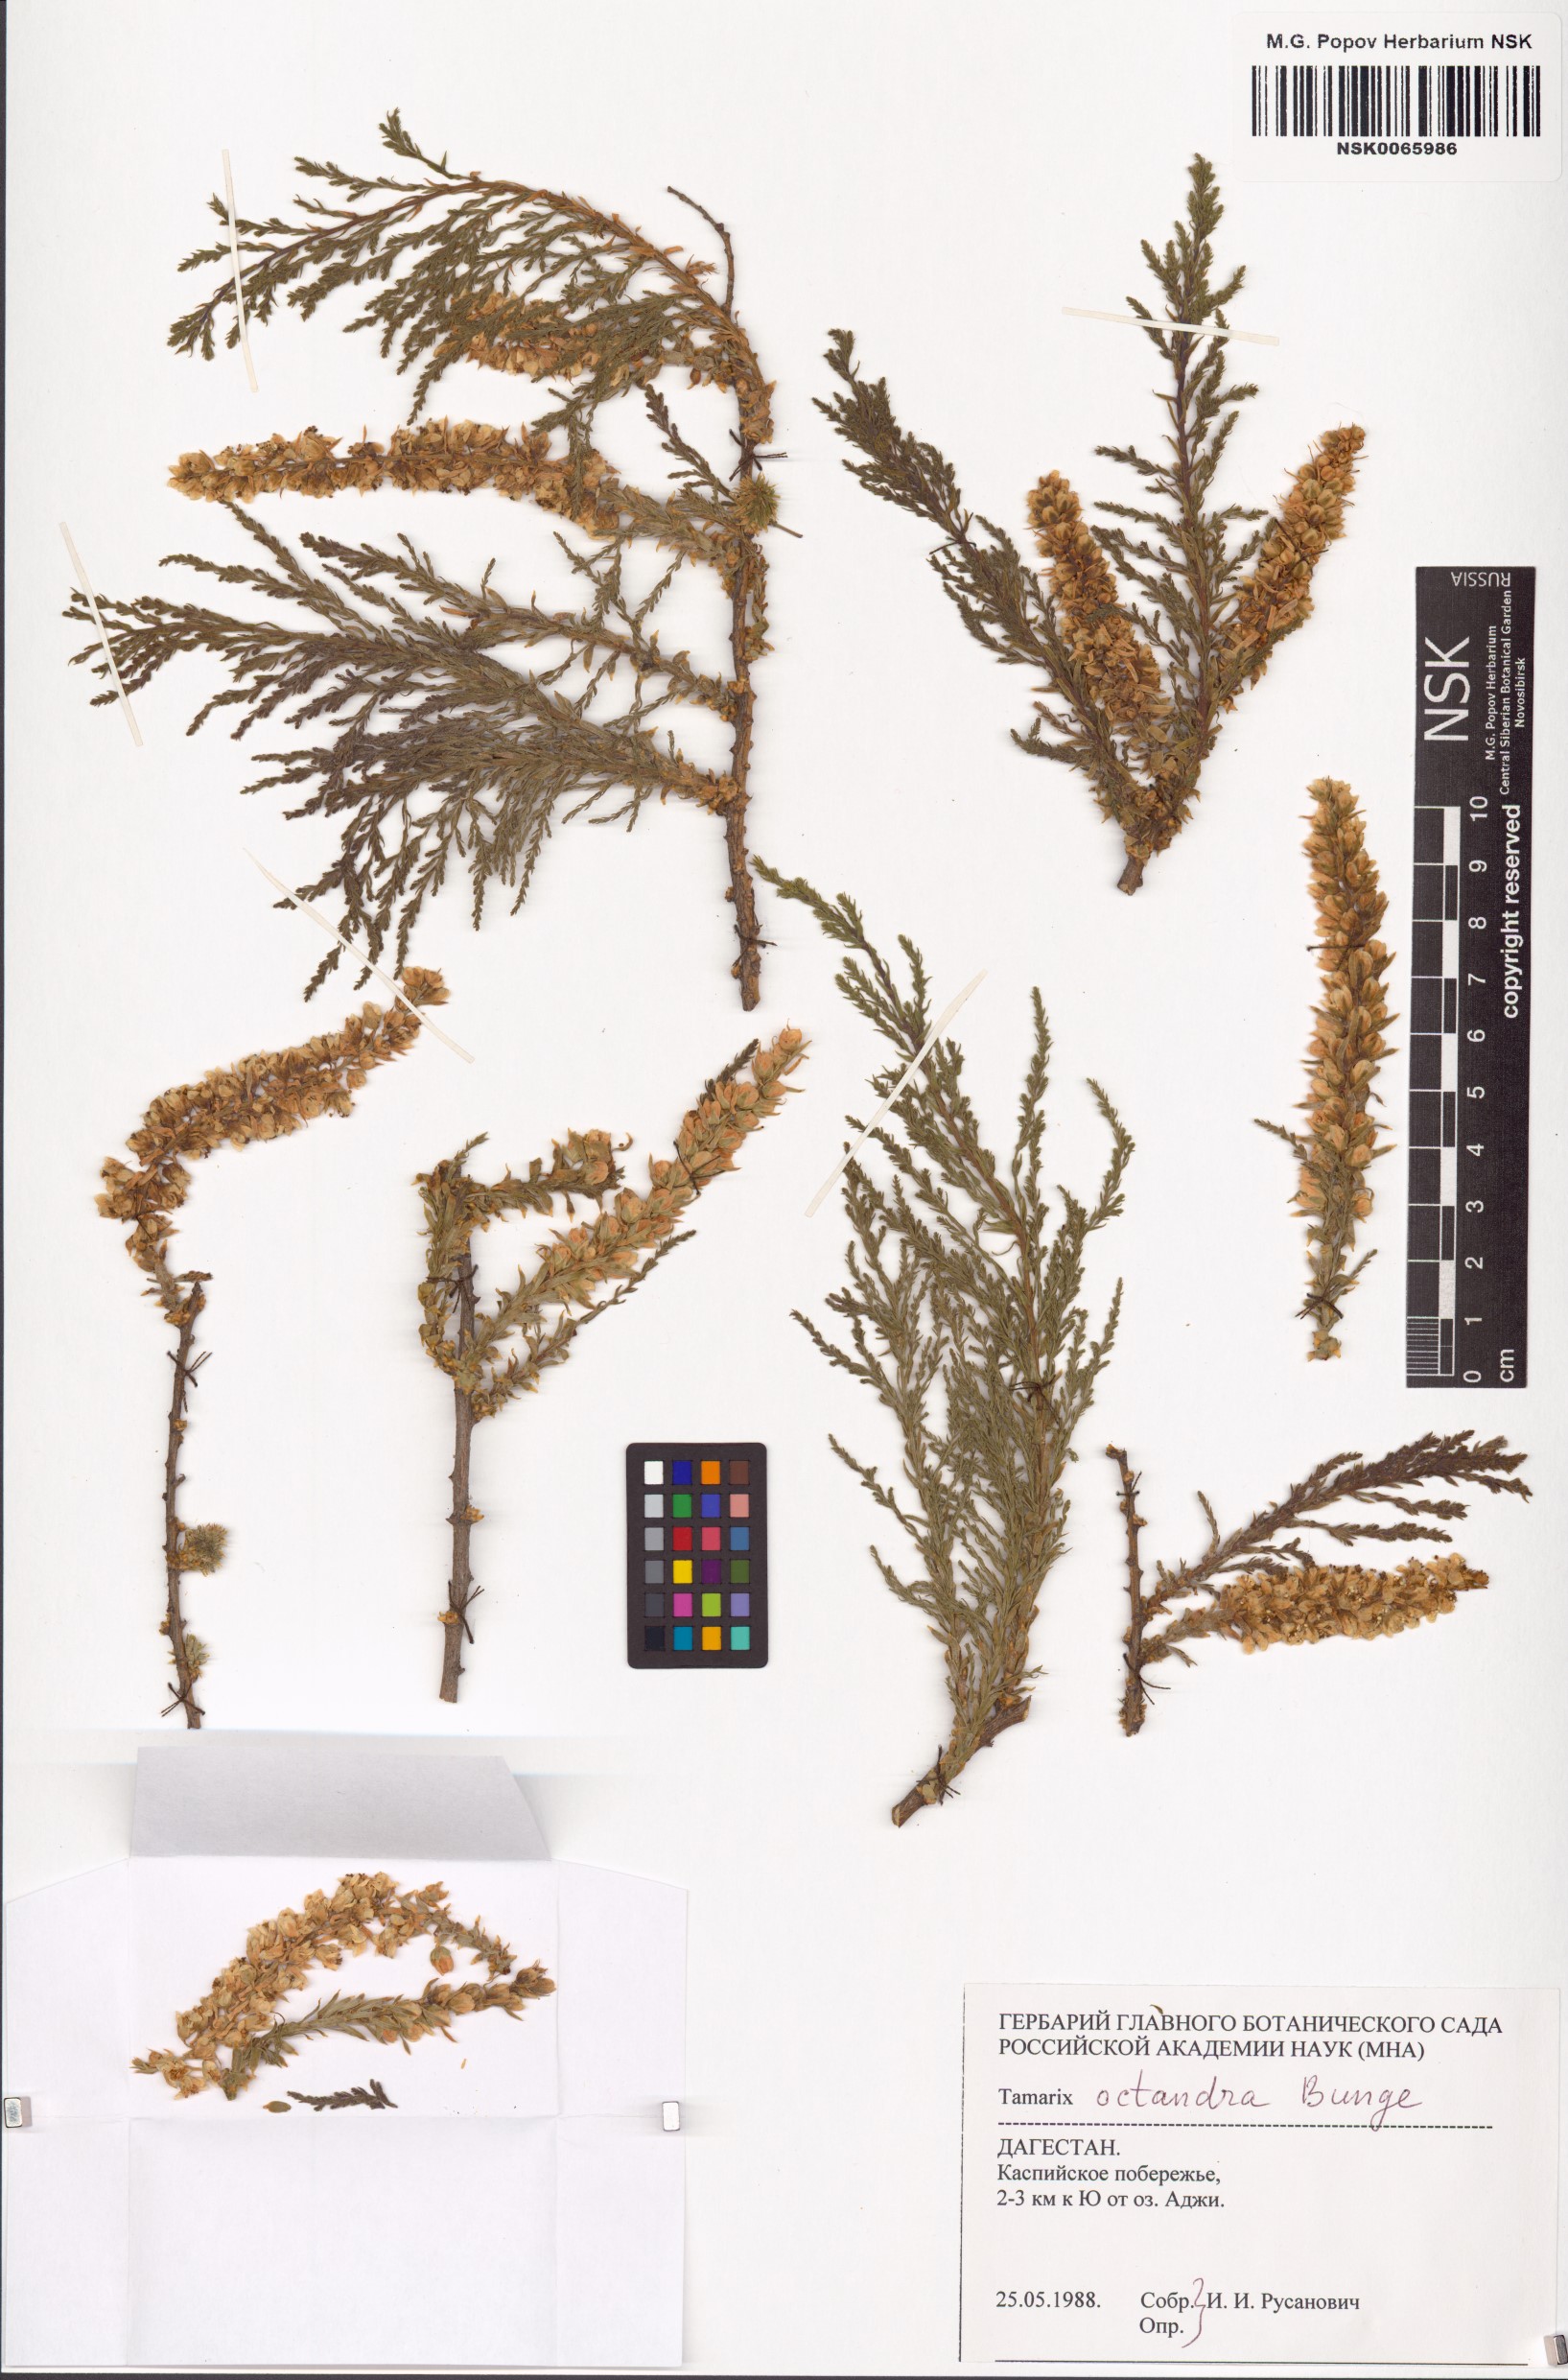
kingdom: Plantae
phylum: Tracheophyta
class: Magnoliopsida
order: Caryophyllales
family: Tamaricaceae
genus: Tamarix
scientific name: Tamarix octandra
